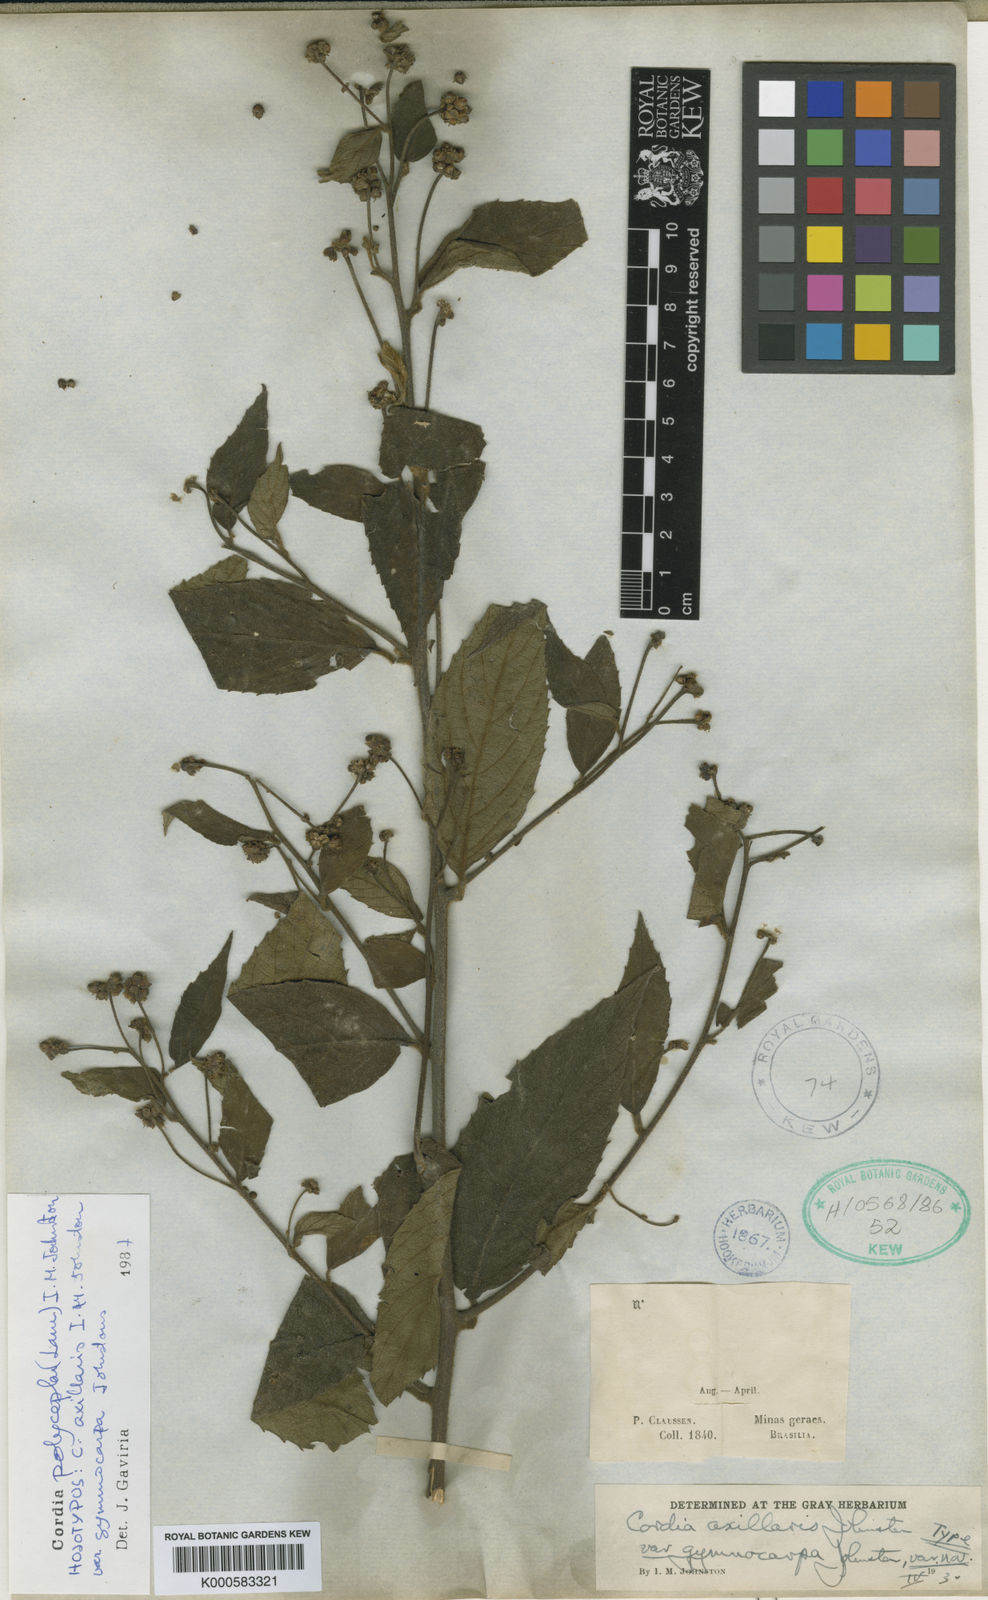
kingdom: Plantae
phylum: Tracheophyta
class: Magnoliopsida
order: Boraginales
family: Cordiaceae
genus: Varronia
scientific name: Varronia discolor
